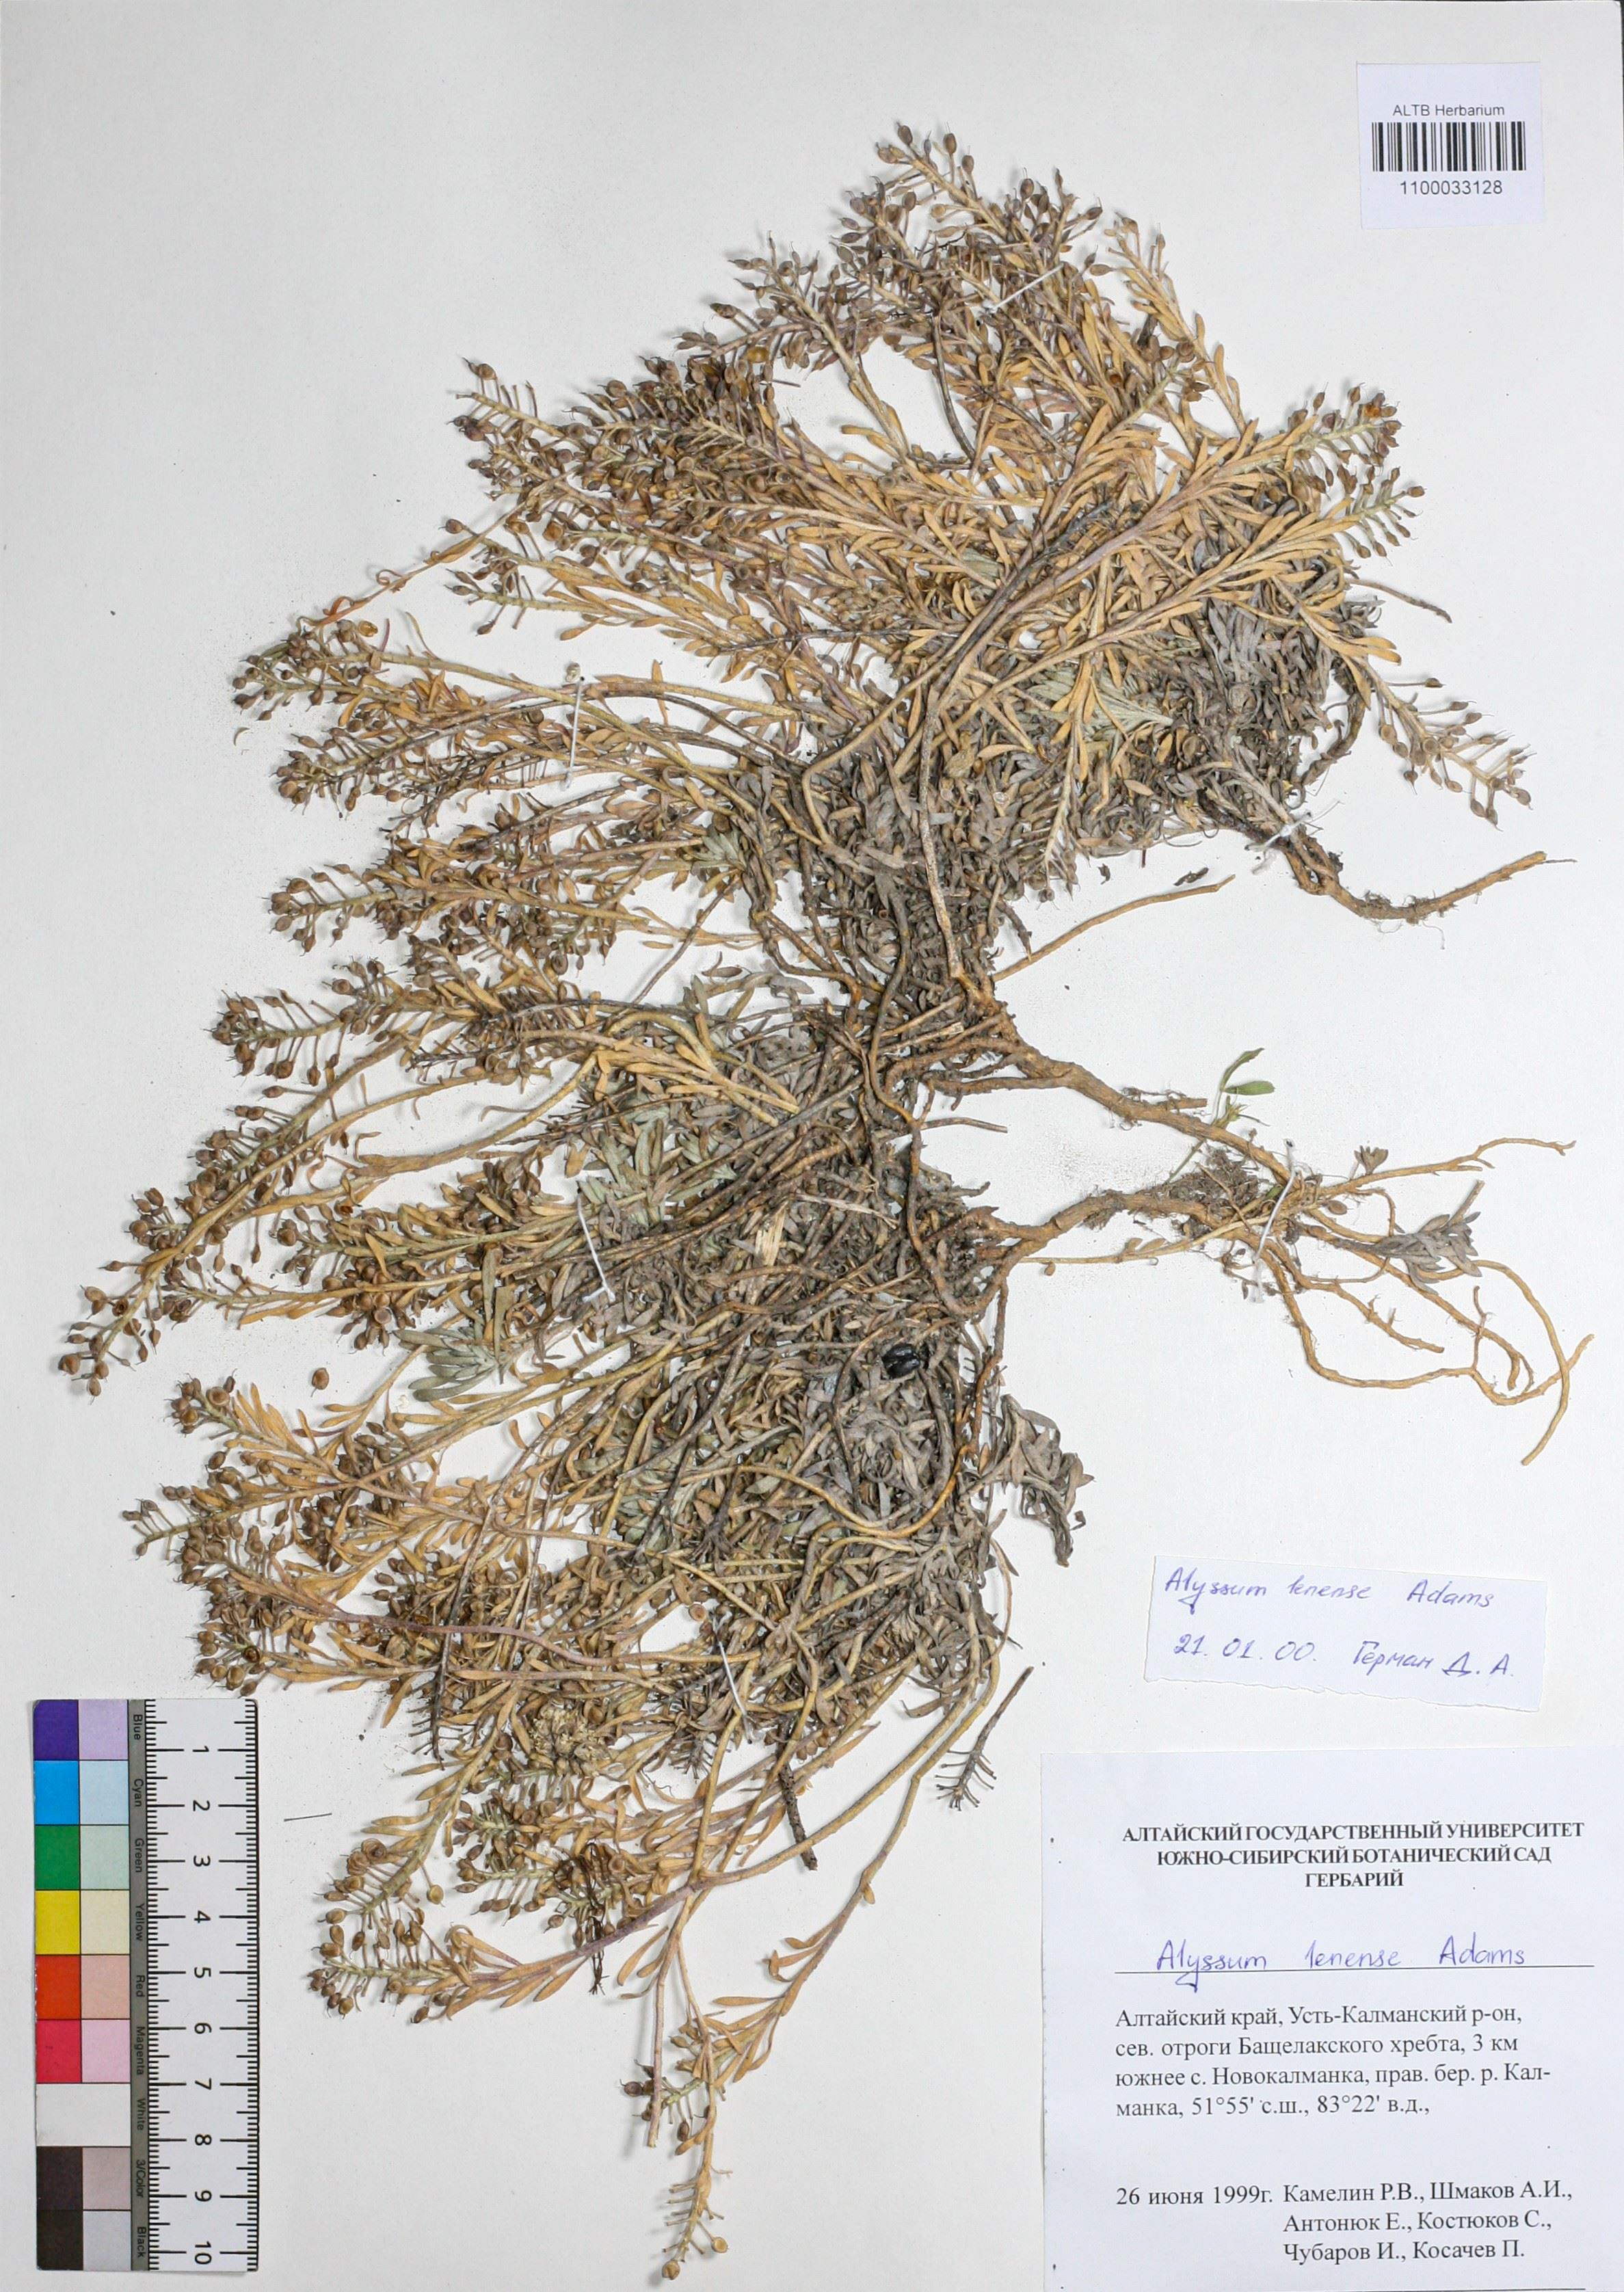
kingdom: Plantae
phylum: Tracheophyta
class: Magnoliopsida
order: Brassicales
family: Brassicaceae
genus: Alyssum
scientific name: Alyssum lenense
